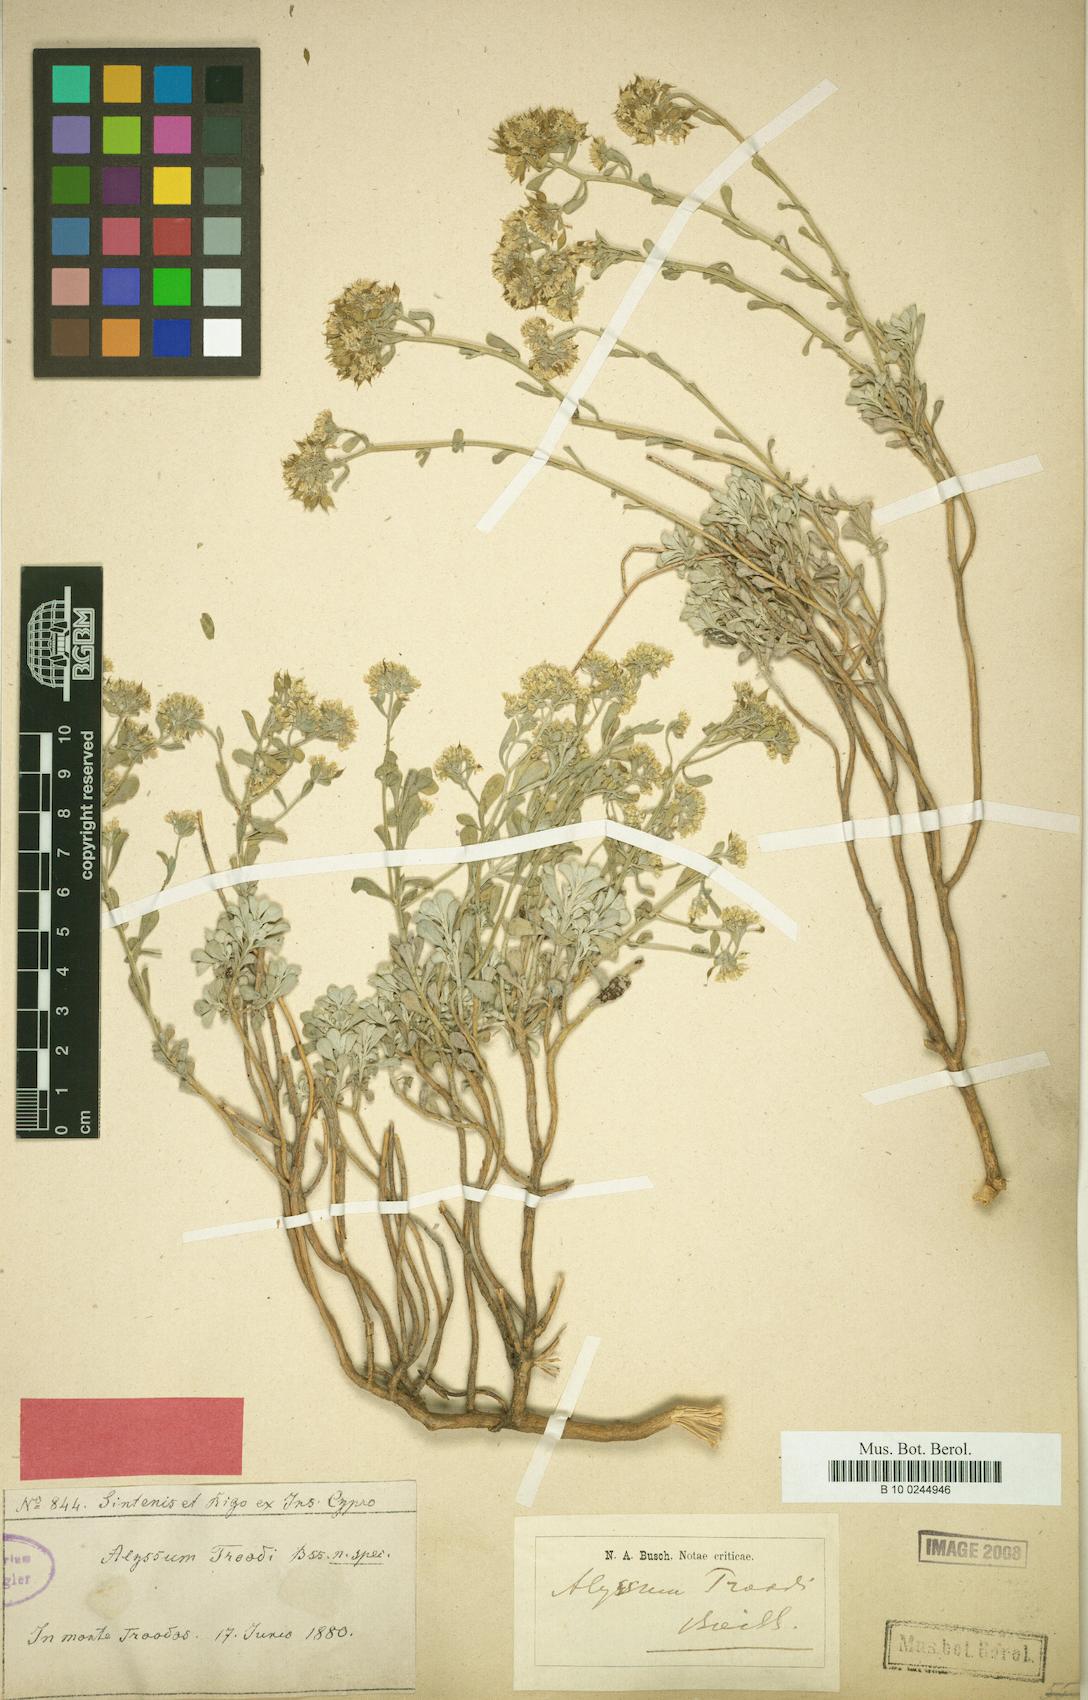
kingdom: Plantae
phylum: Tracheophyta
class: Magnoliopsida
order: Brassicales
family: Brassicaceae
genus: Odontarrhena
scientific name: Odontarrhena troodi
